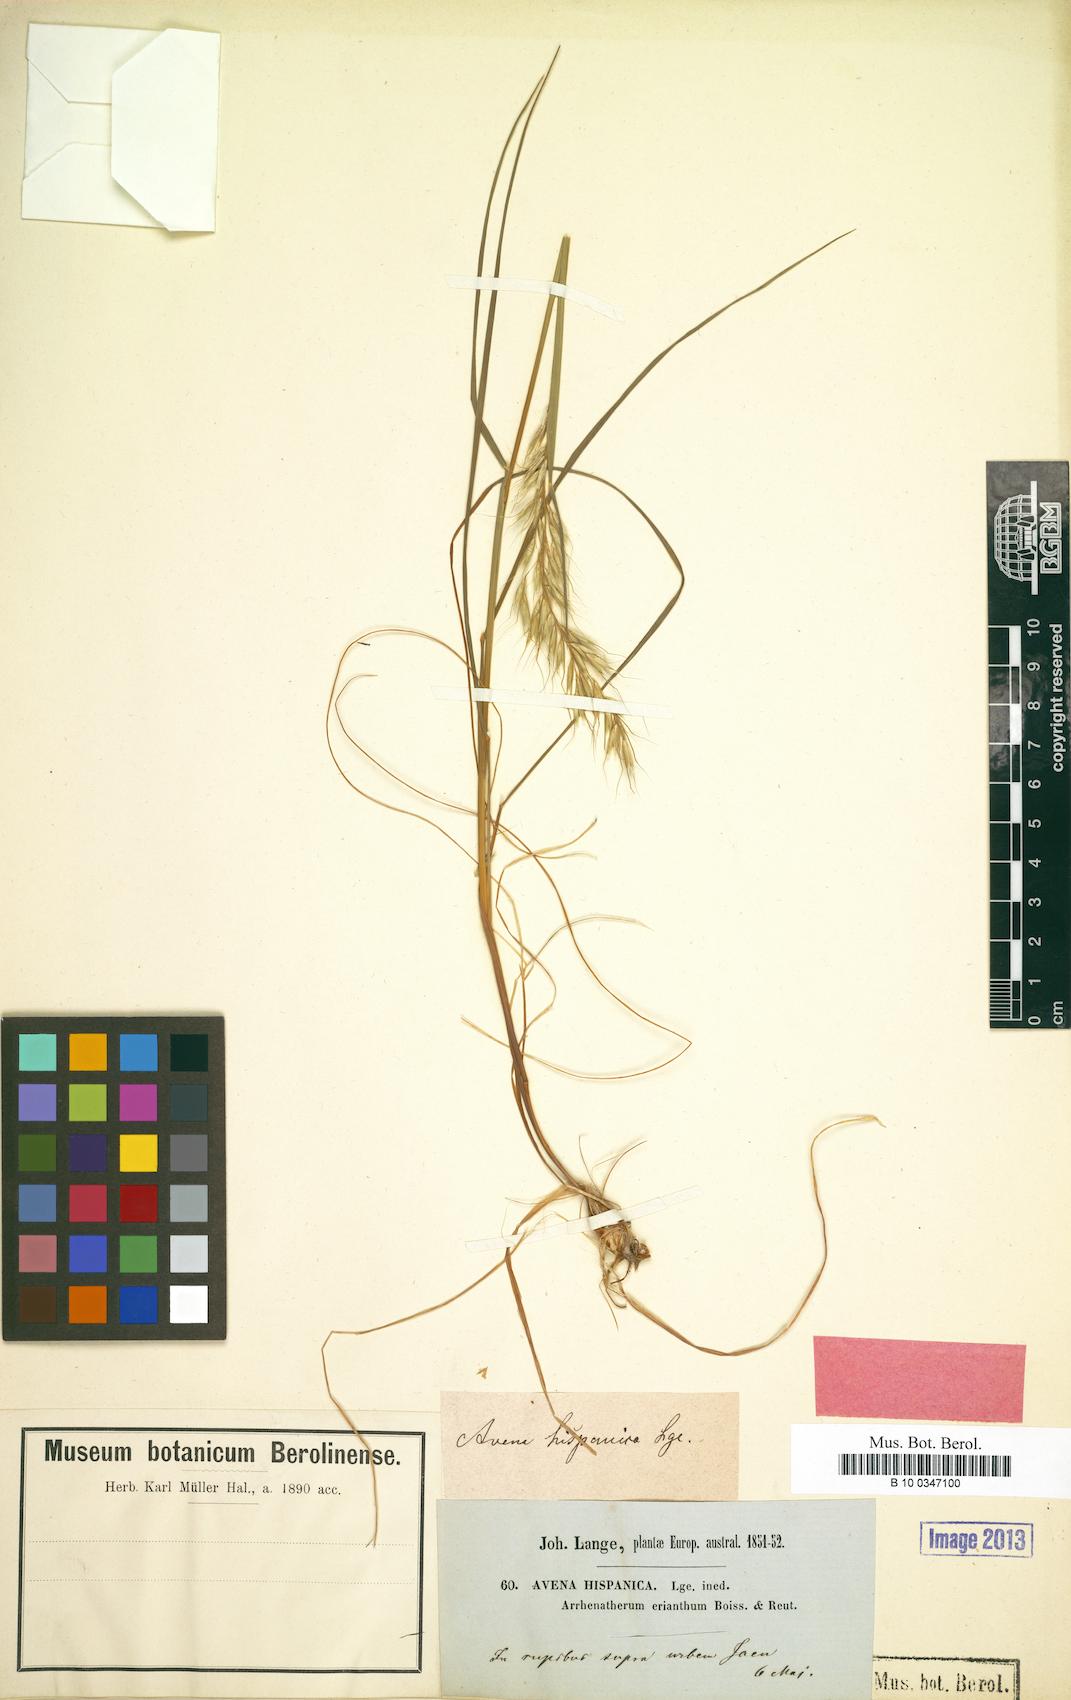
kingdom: Plantae
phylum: Tracheophyta
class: Liliopsida
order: Poales
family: Poaceae
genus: Arrhenatherum
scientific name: Arrhenatherum elatius
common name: Tall oatgrass
